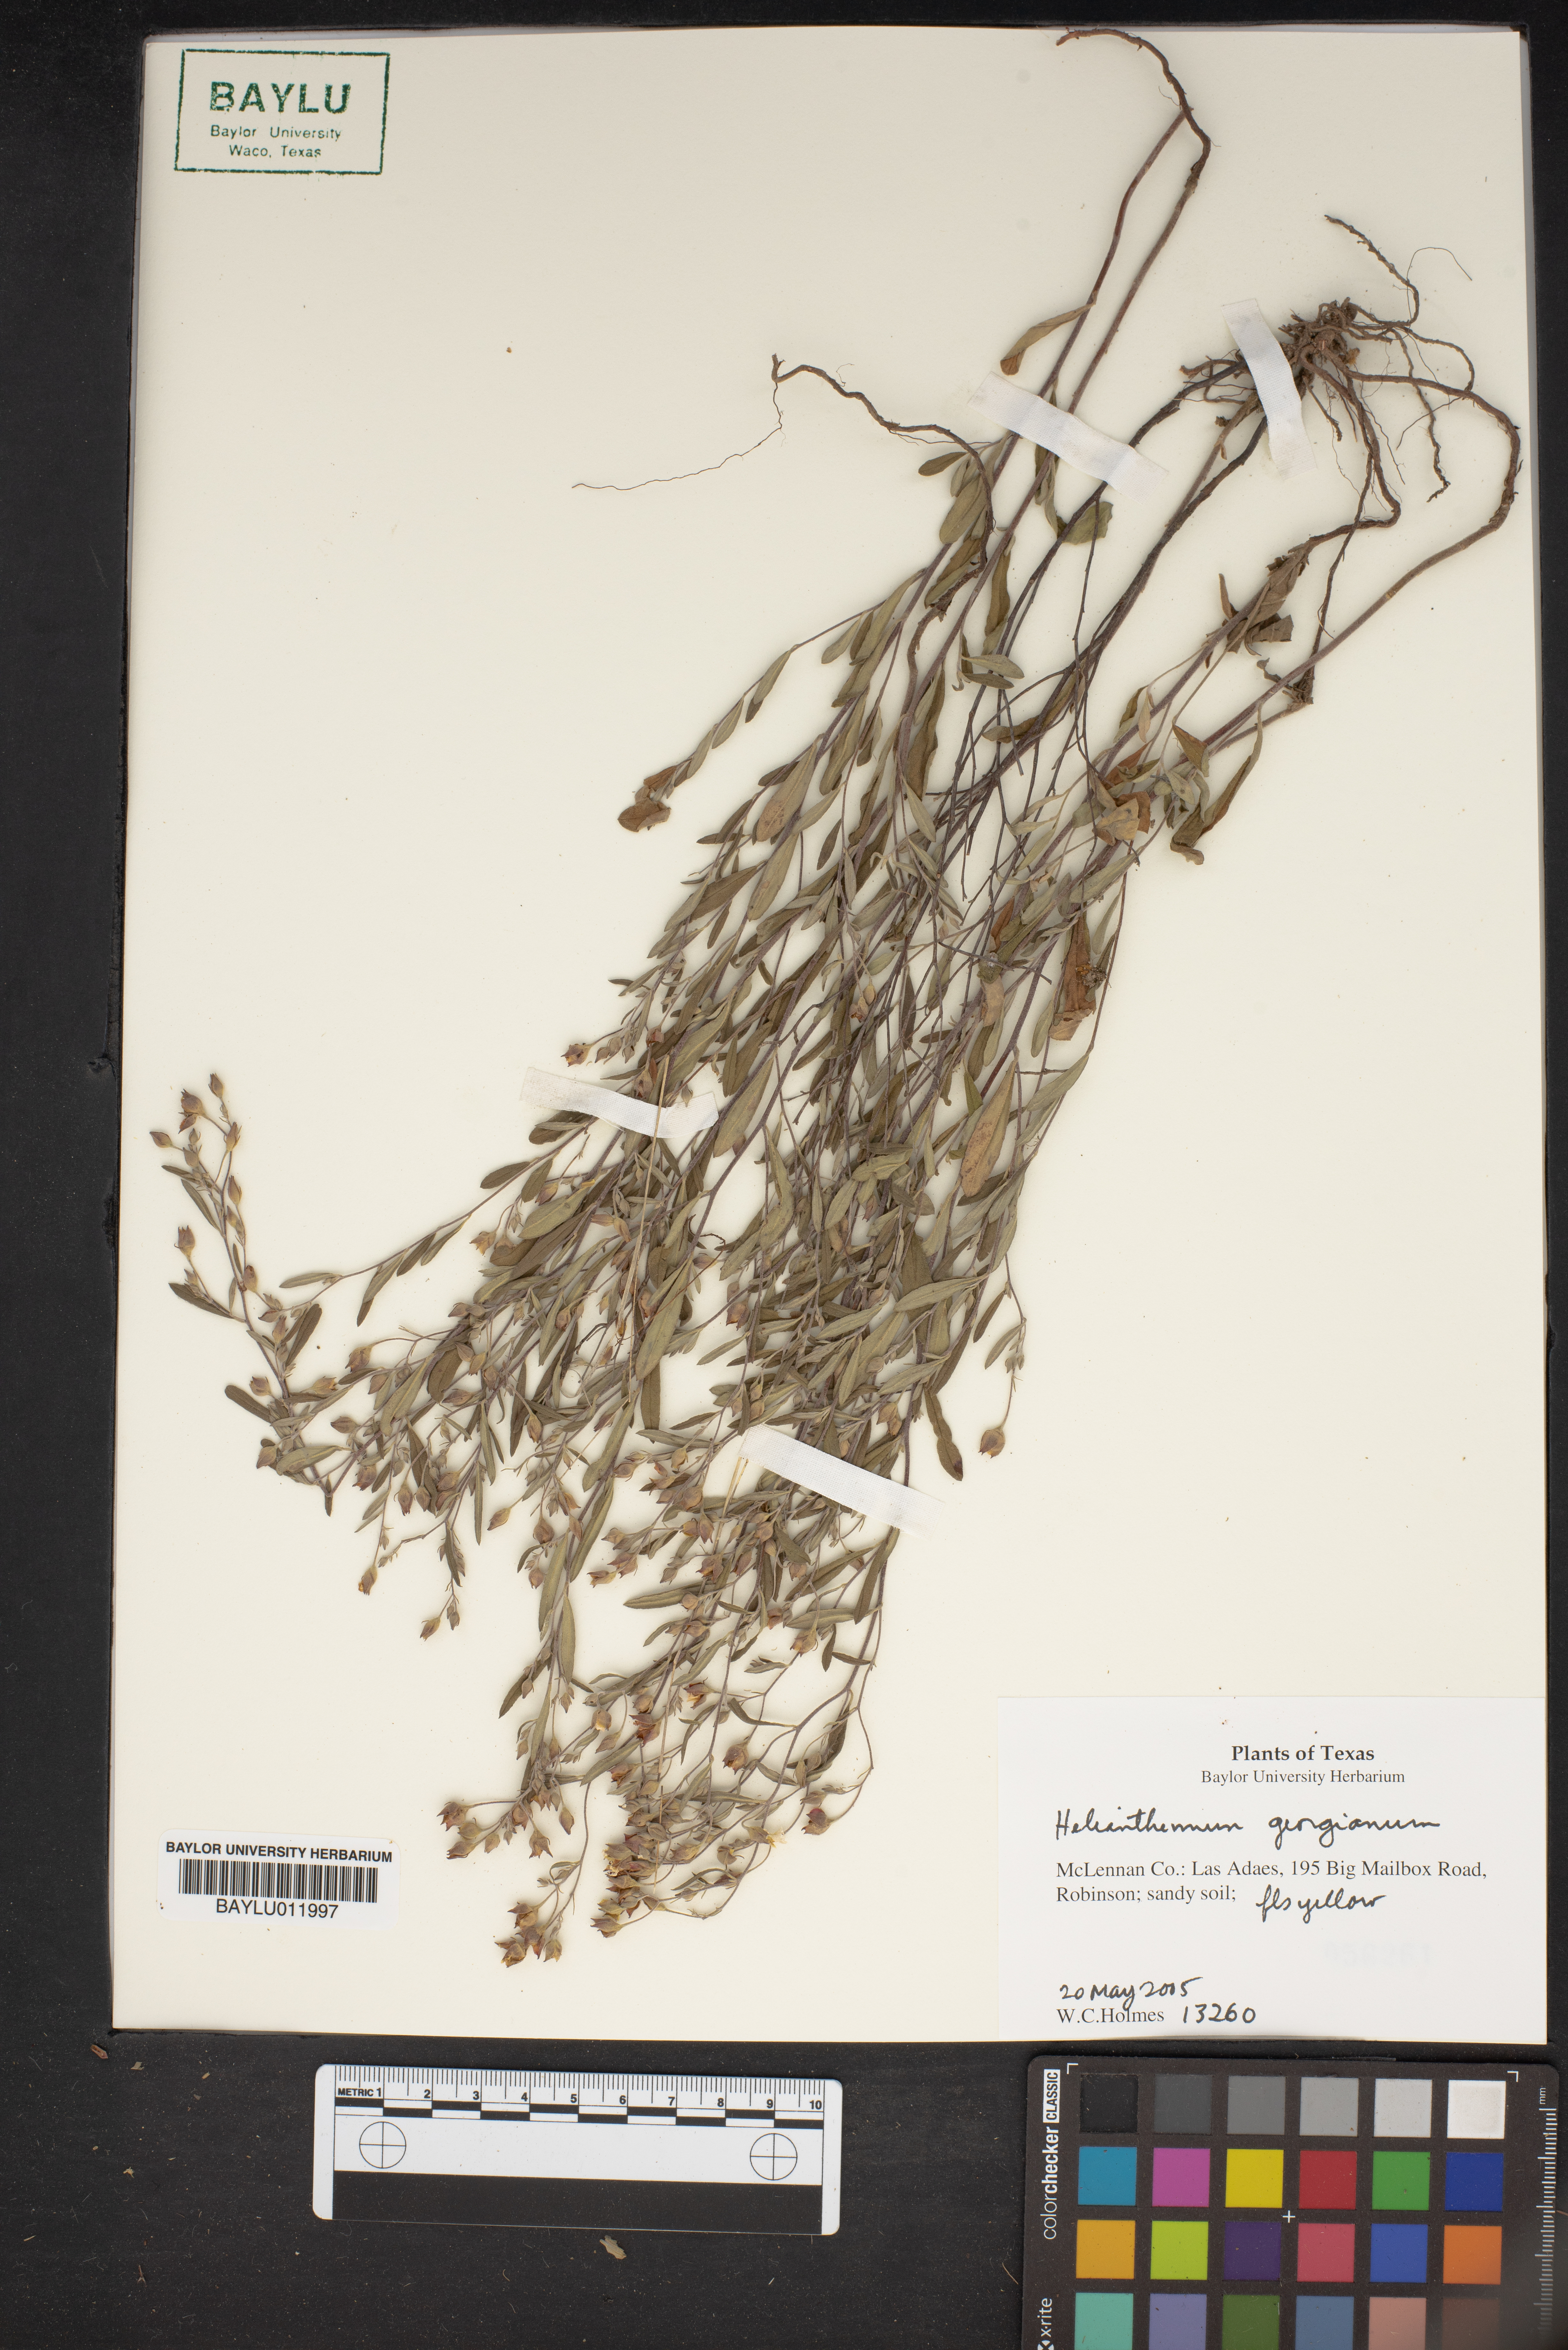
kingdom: Plantae
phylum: Tracheophyta
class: Magnoliopsida
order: Malvales
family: Cistaceae
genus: Crocanthemum
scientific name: Crocanthemum georgianum
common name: Georgia frostweed
